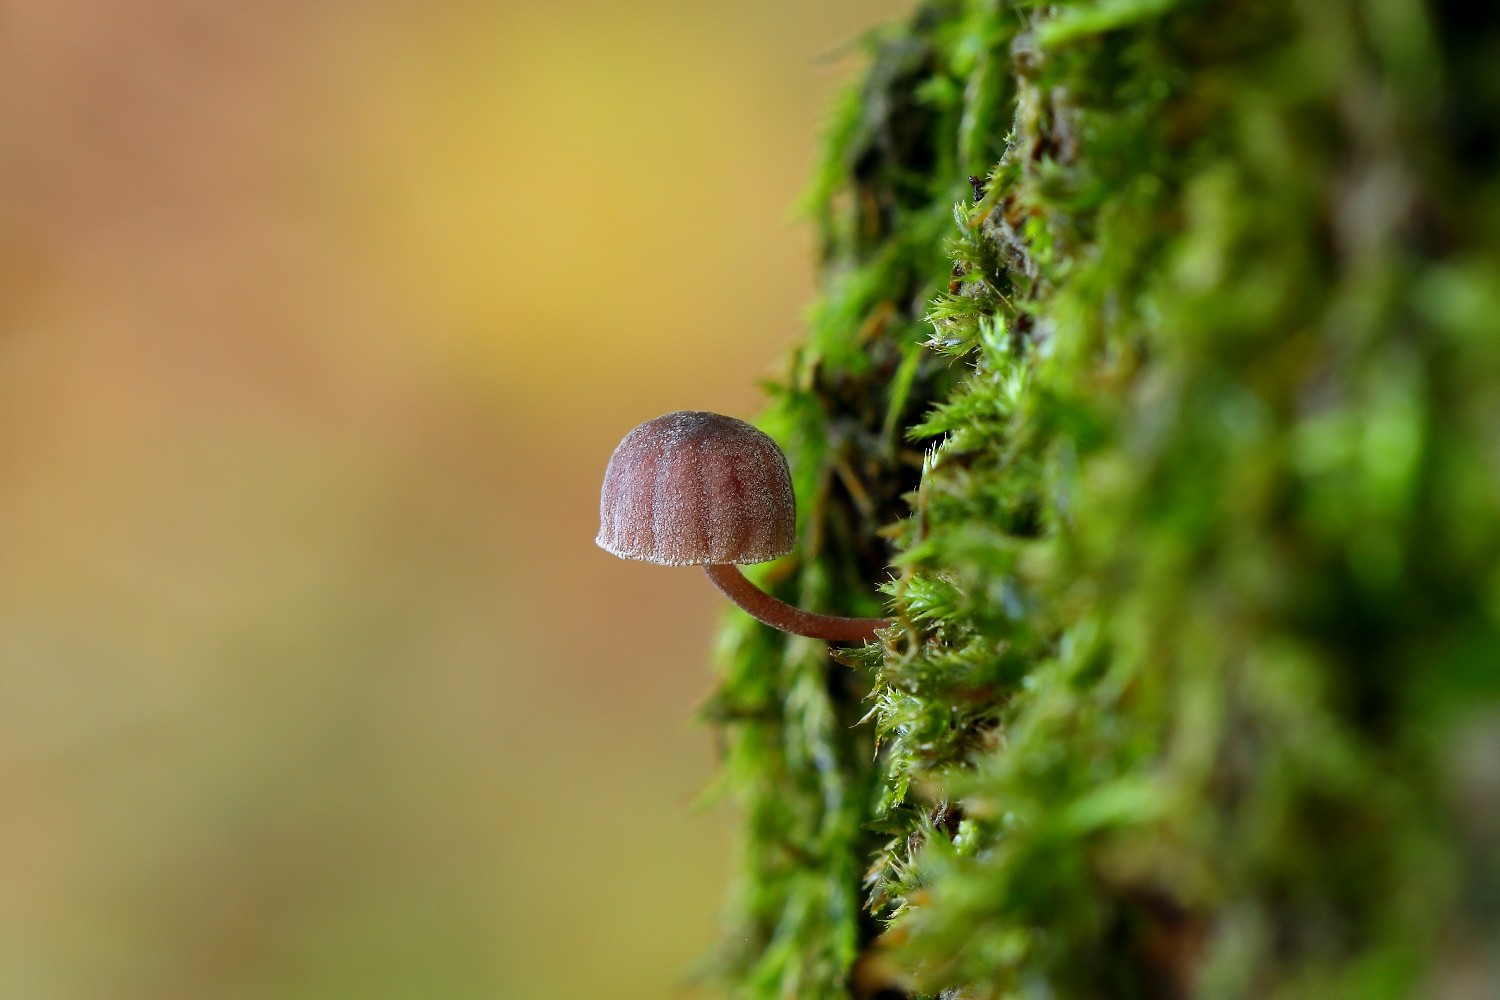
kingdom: Fungi
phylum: Basidiomycota
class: Agaricomycetes
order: Agaricales
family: Mycenaceae
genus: Mycena
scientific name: Mycena meliigena
